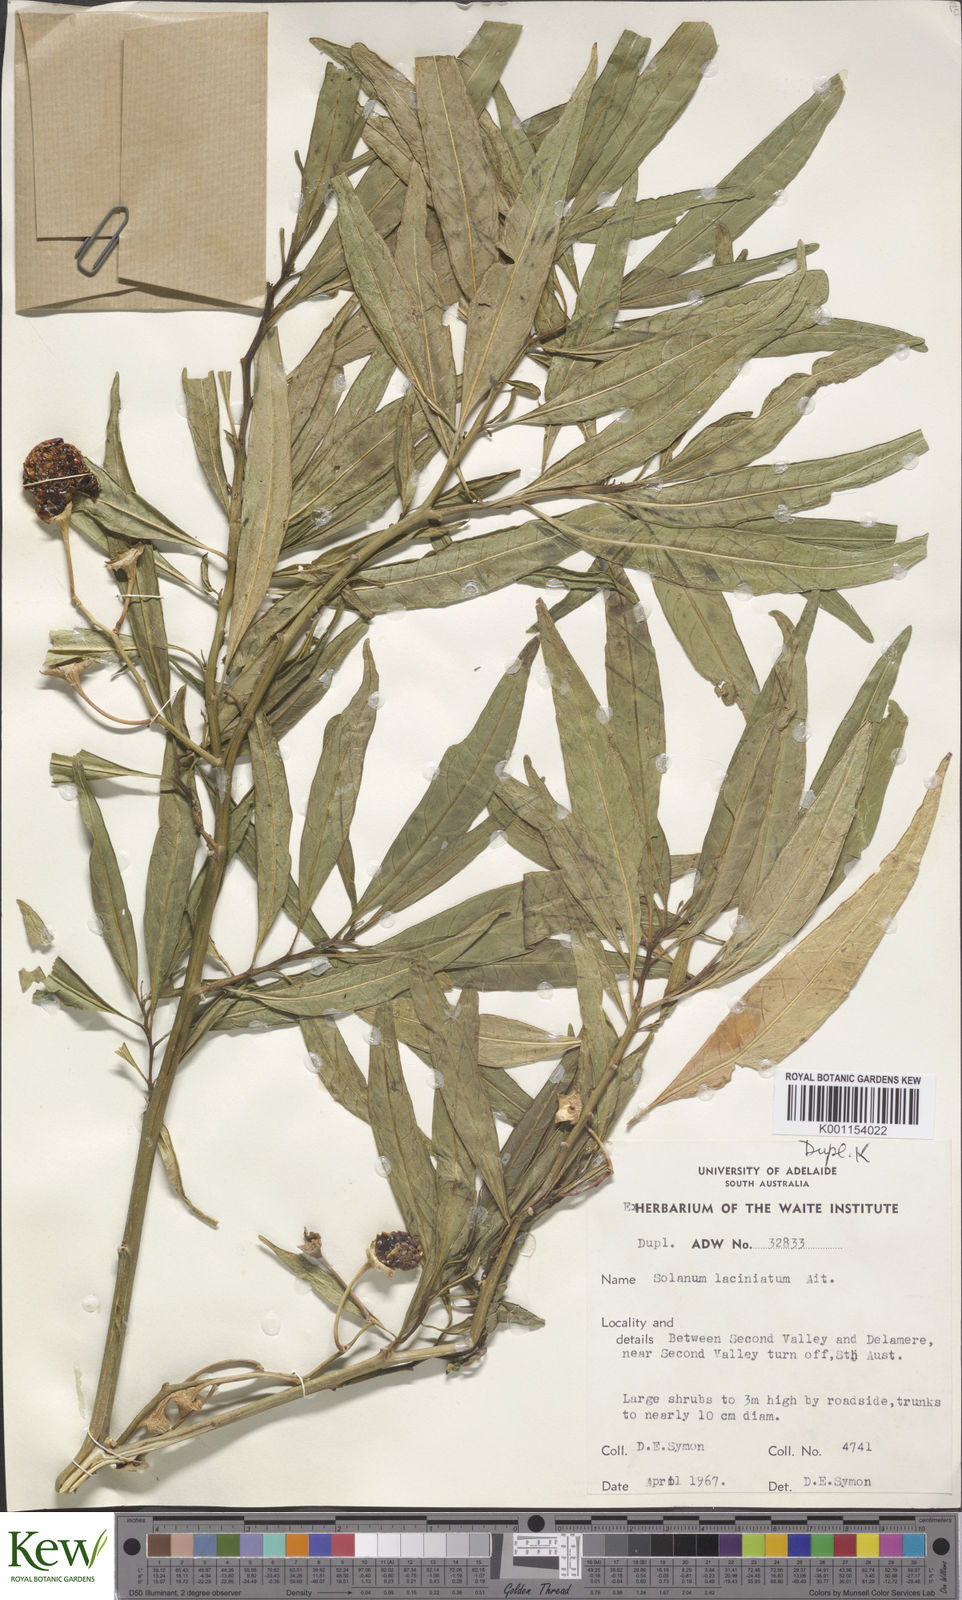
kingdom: Plantae
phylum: Tracheophyta
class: Magnoliopsida
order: Solanales
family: Solanaceae
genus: Solanum
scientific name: Solanum laciniatum
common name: Kangaroo-apple
